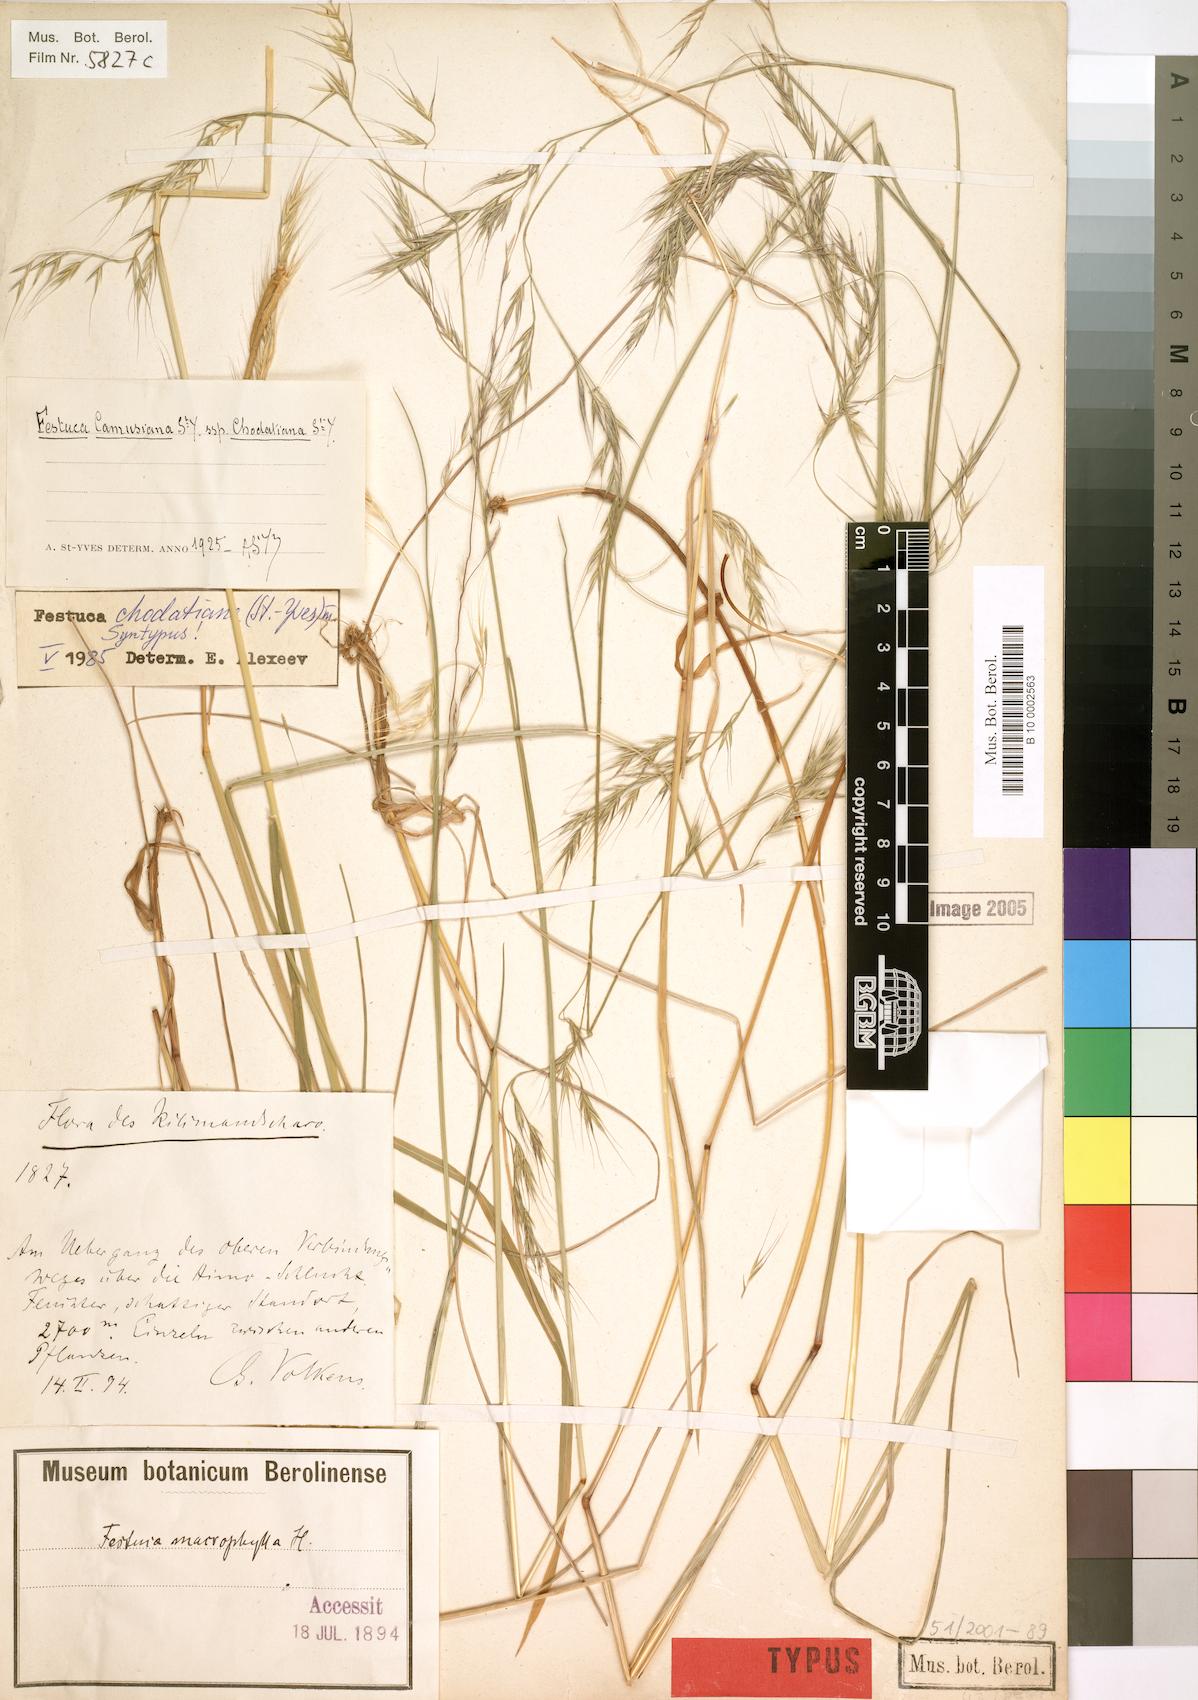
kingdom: Plantae
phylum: Tracheophyta
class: Liliopsida
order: Poales
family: Poaceae
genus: Festuca
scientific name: Festuca chodatiana
